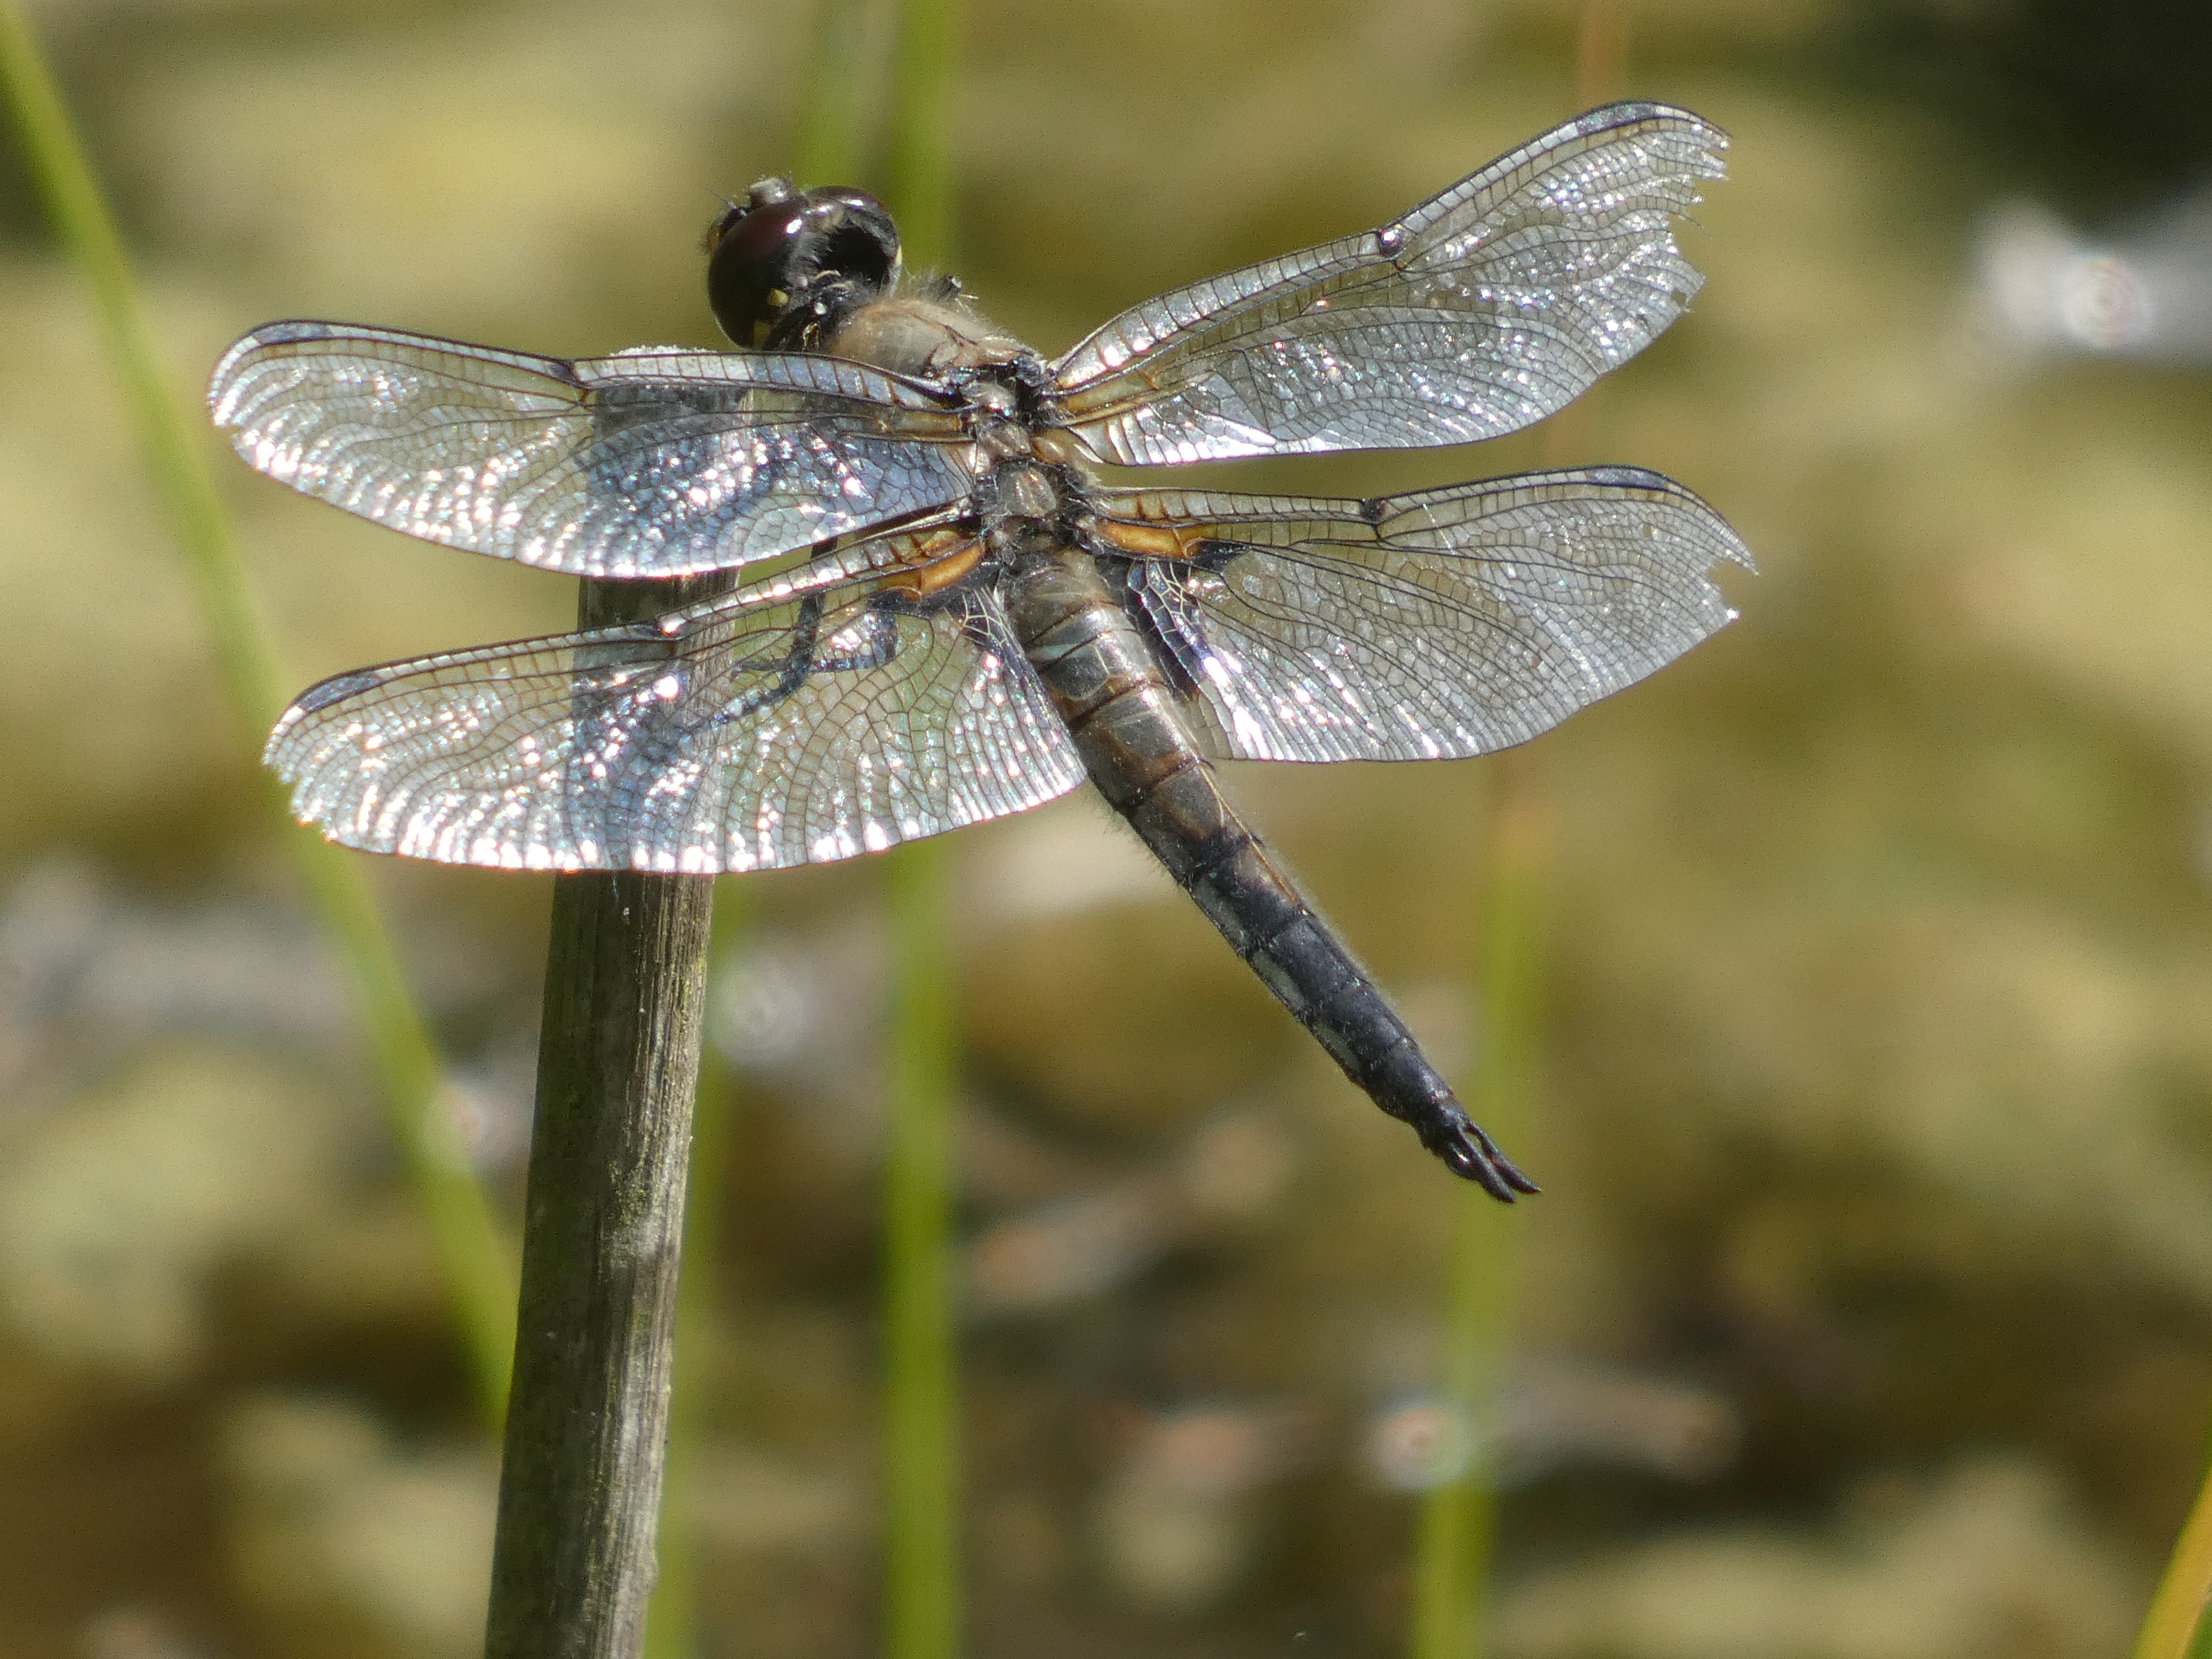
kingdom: Animalia
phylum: Arthropoda
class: Insecta
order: Odonata
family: Libellulidae
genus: Libellula
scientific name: Libellula quadrimaculata
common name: Fireplettet libel
